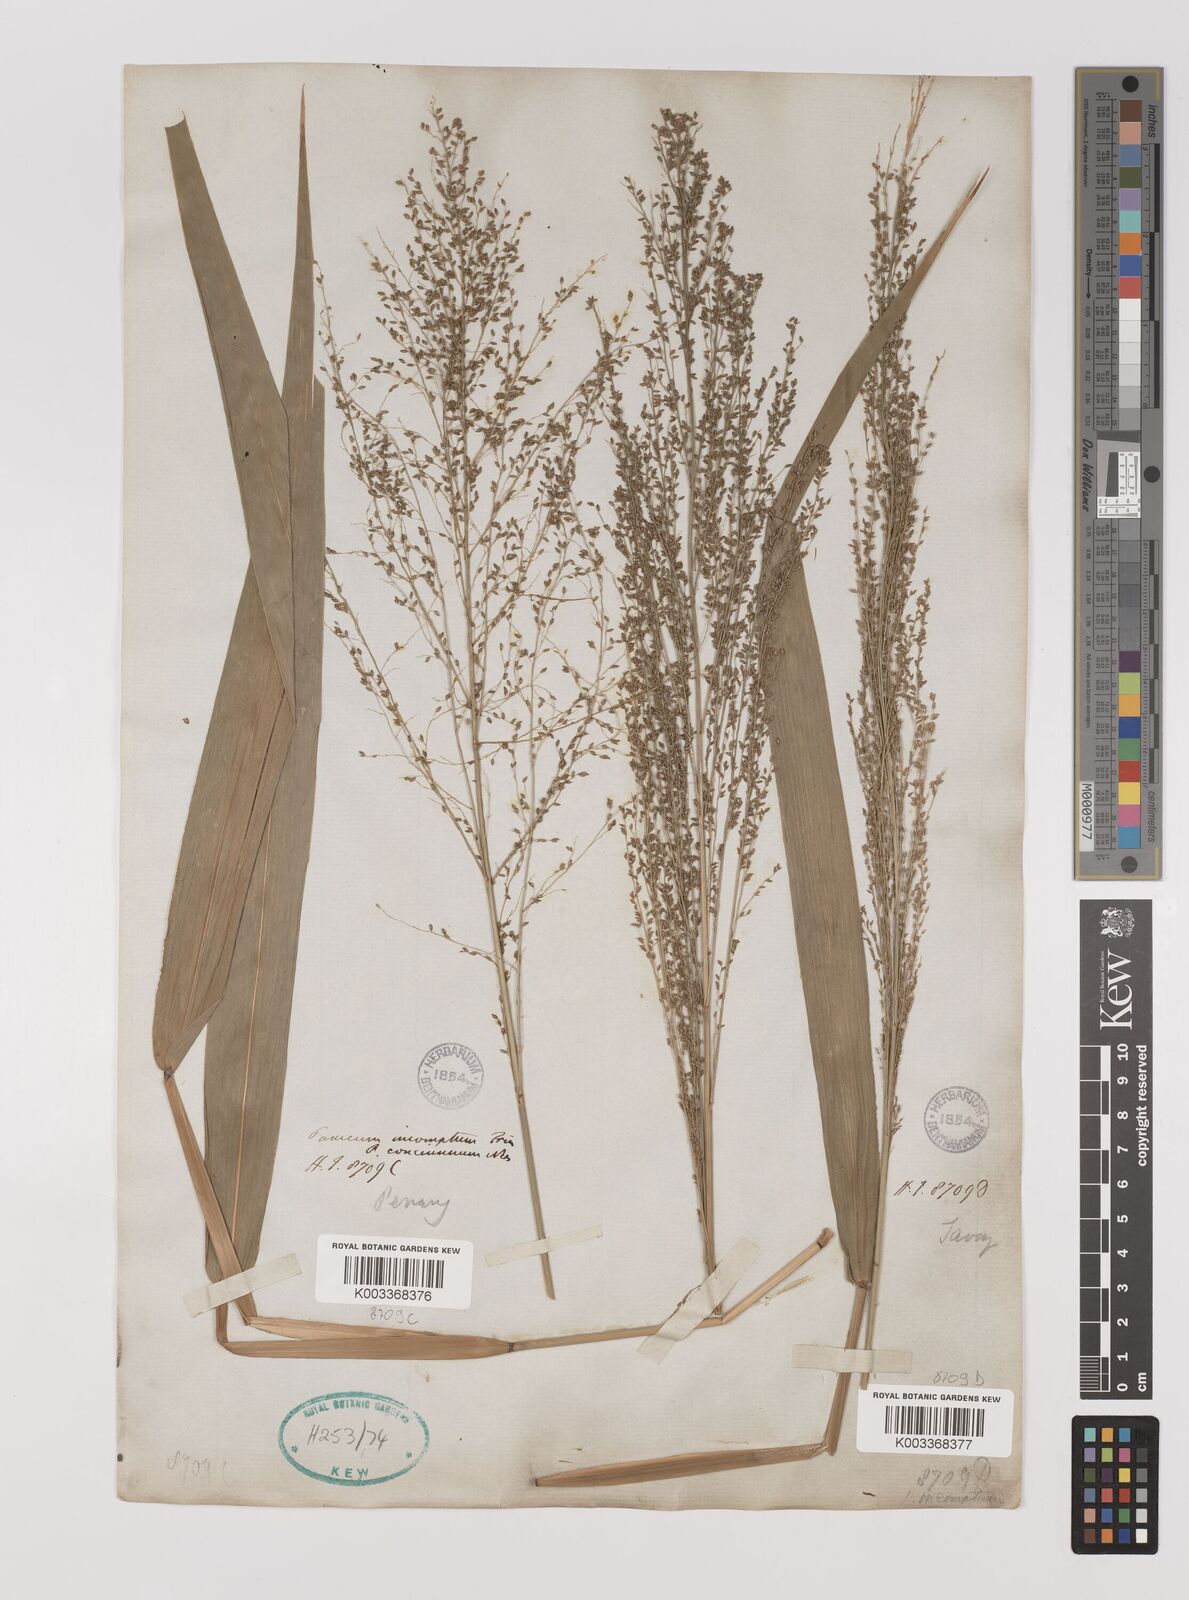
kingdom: Plantae
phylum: Tracheophyta
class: Liliopsida
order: Poales
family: Poaceae
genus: Panicum
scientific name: Panicum sarmentosum
